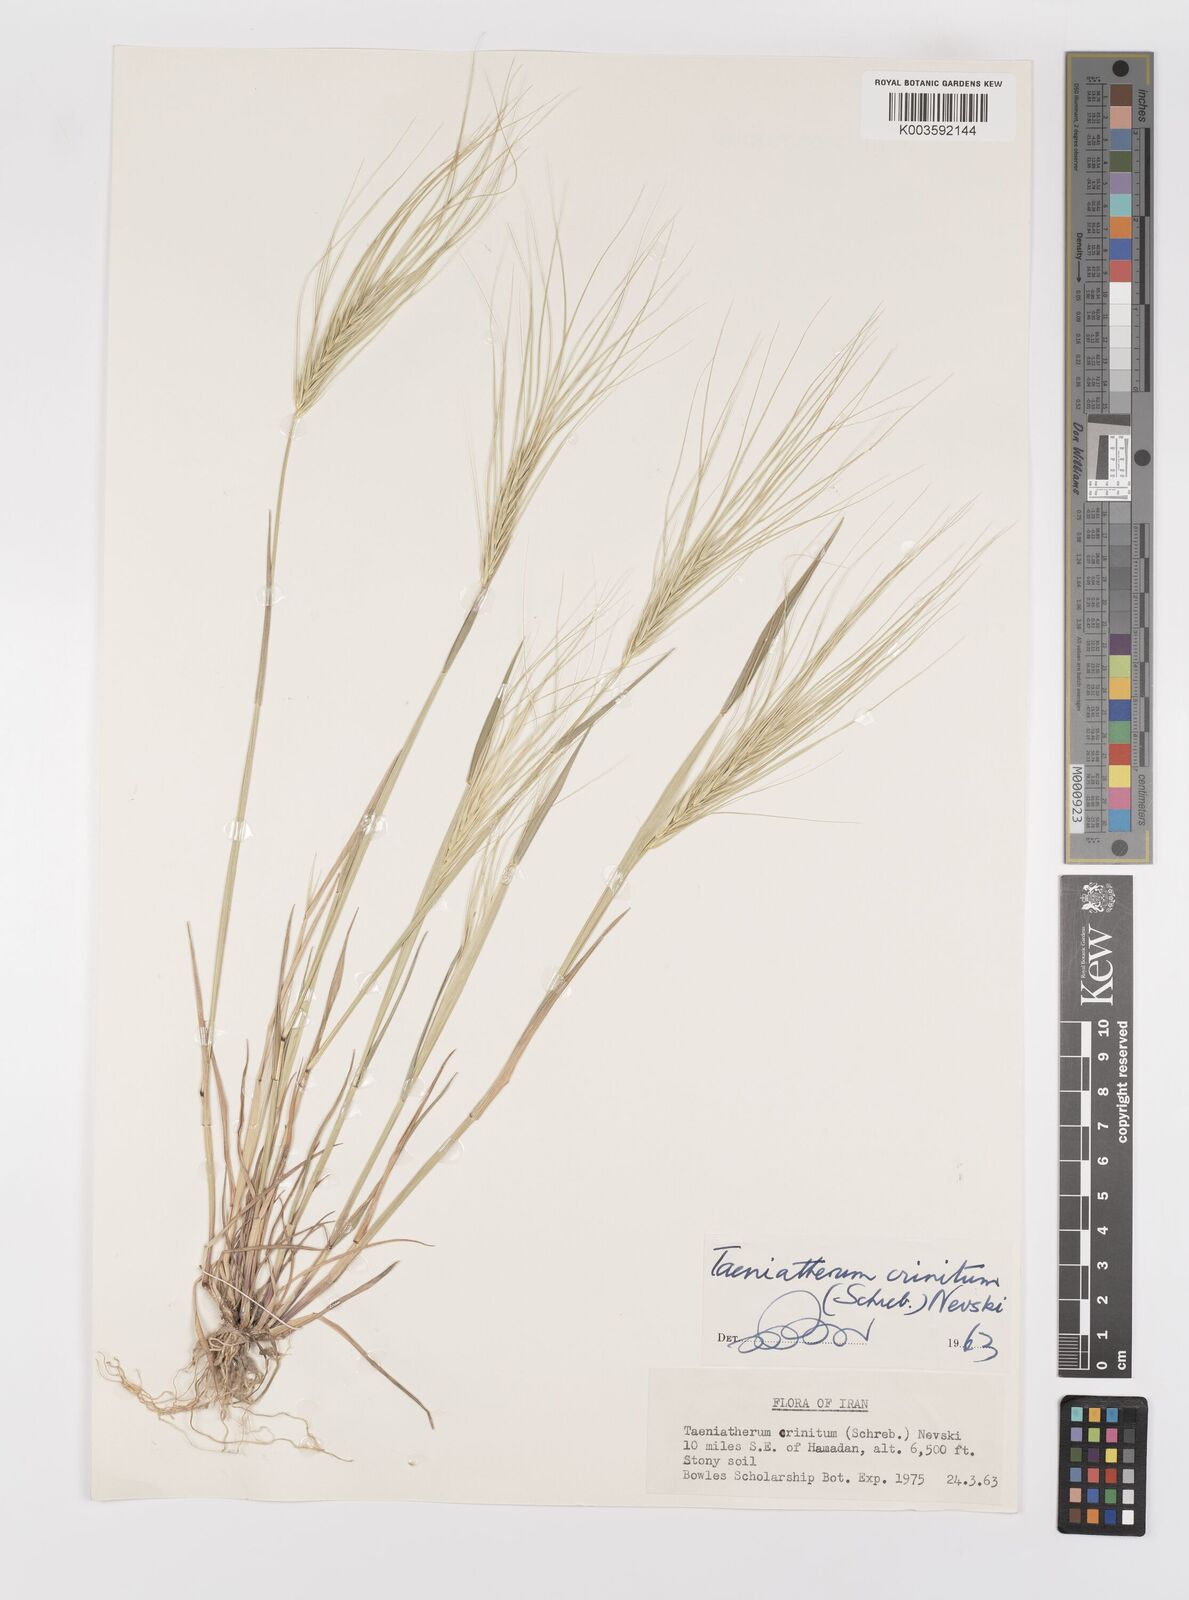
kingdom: Plantae
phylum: Tracheophyta
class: Liliopsida
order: Poales
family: Poaceae
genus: Taeniatherum
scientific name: Taeniatherum caput-medusae
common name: Medusahead
